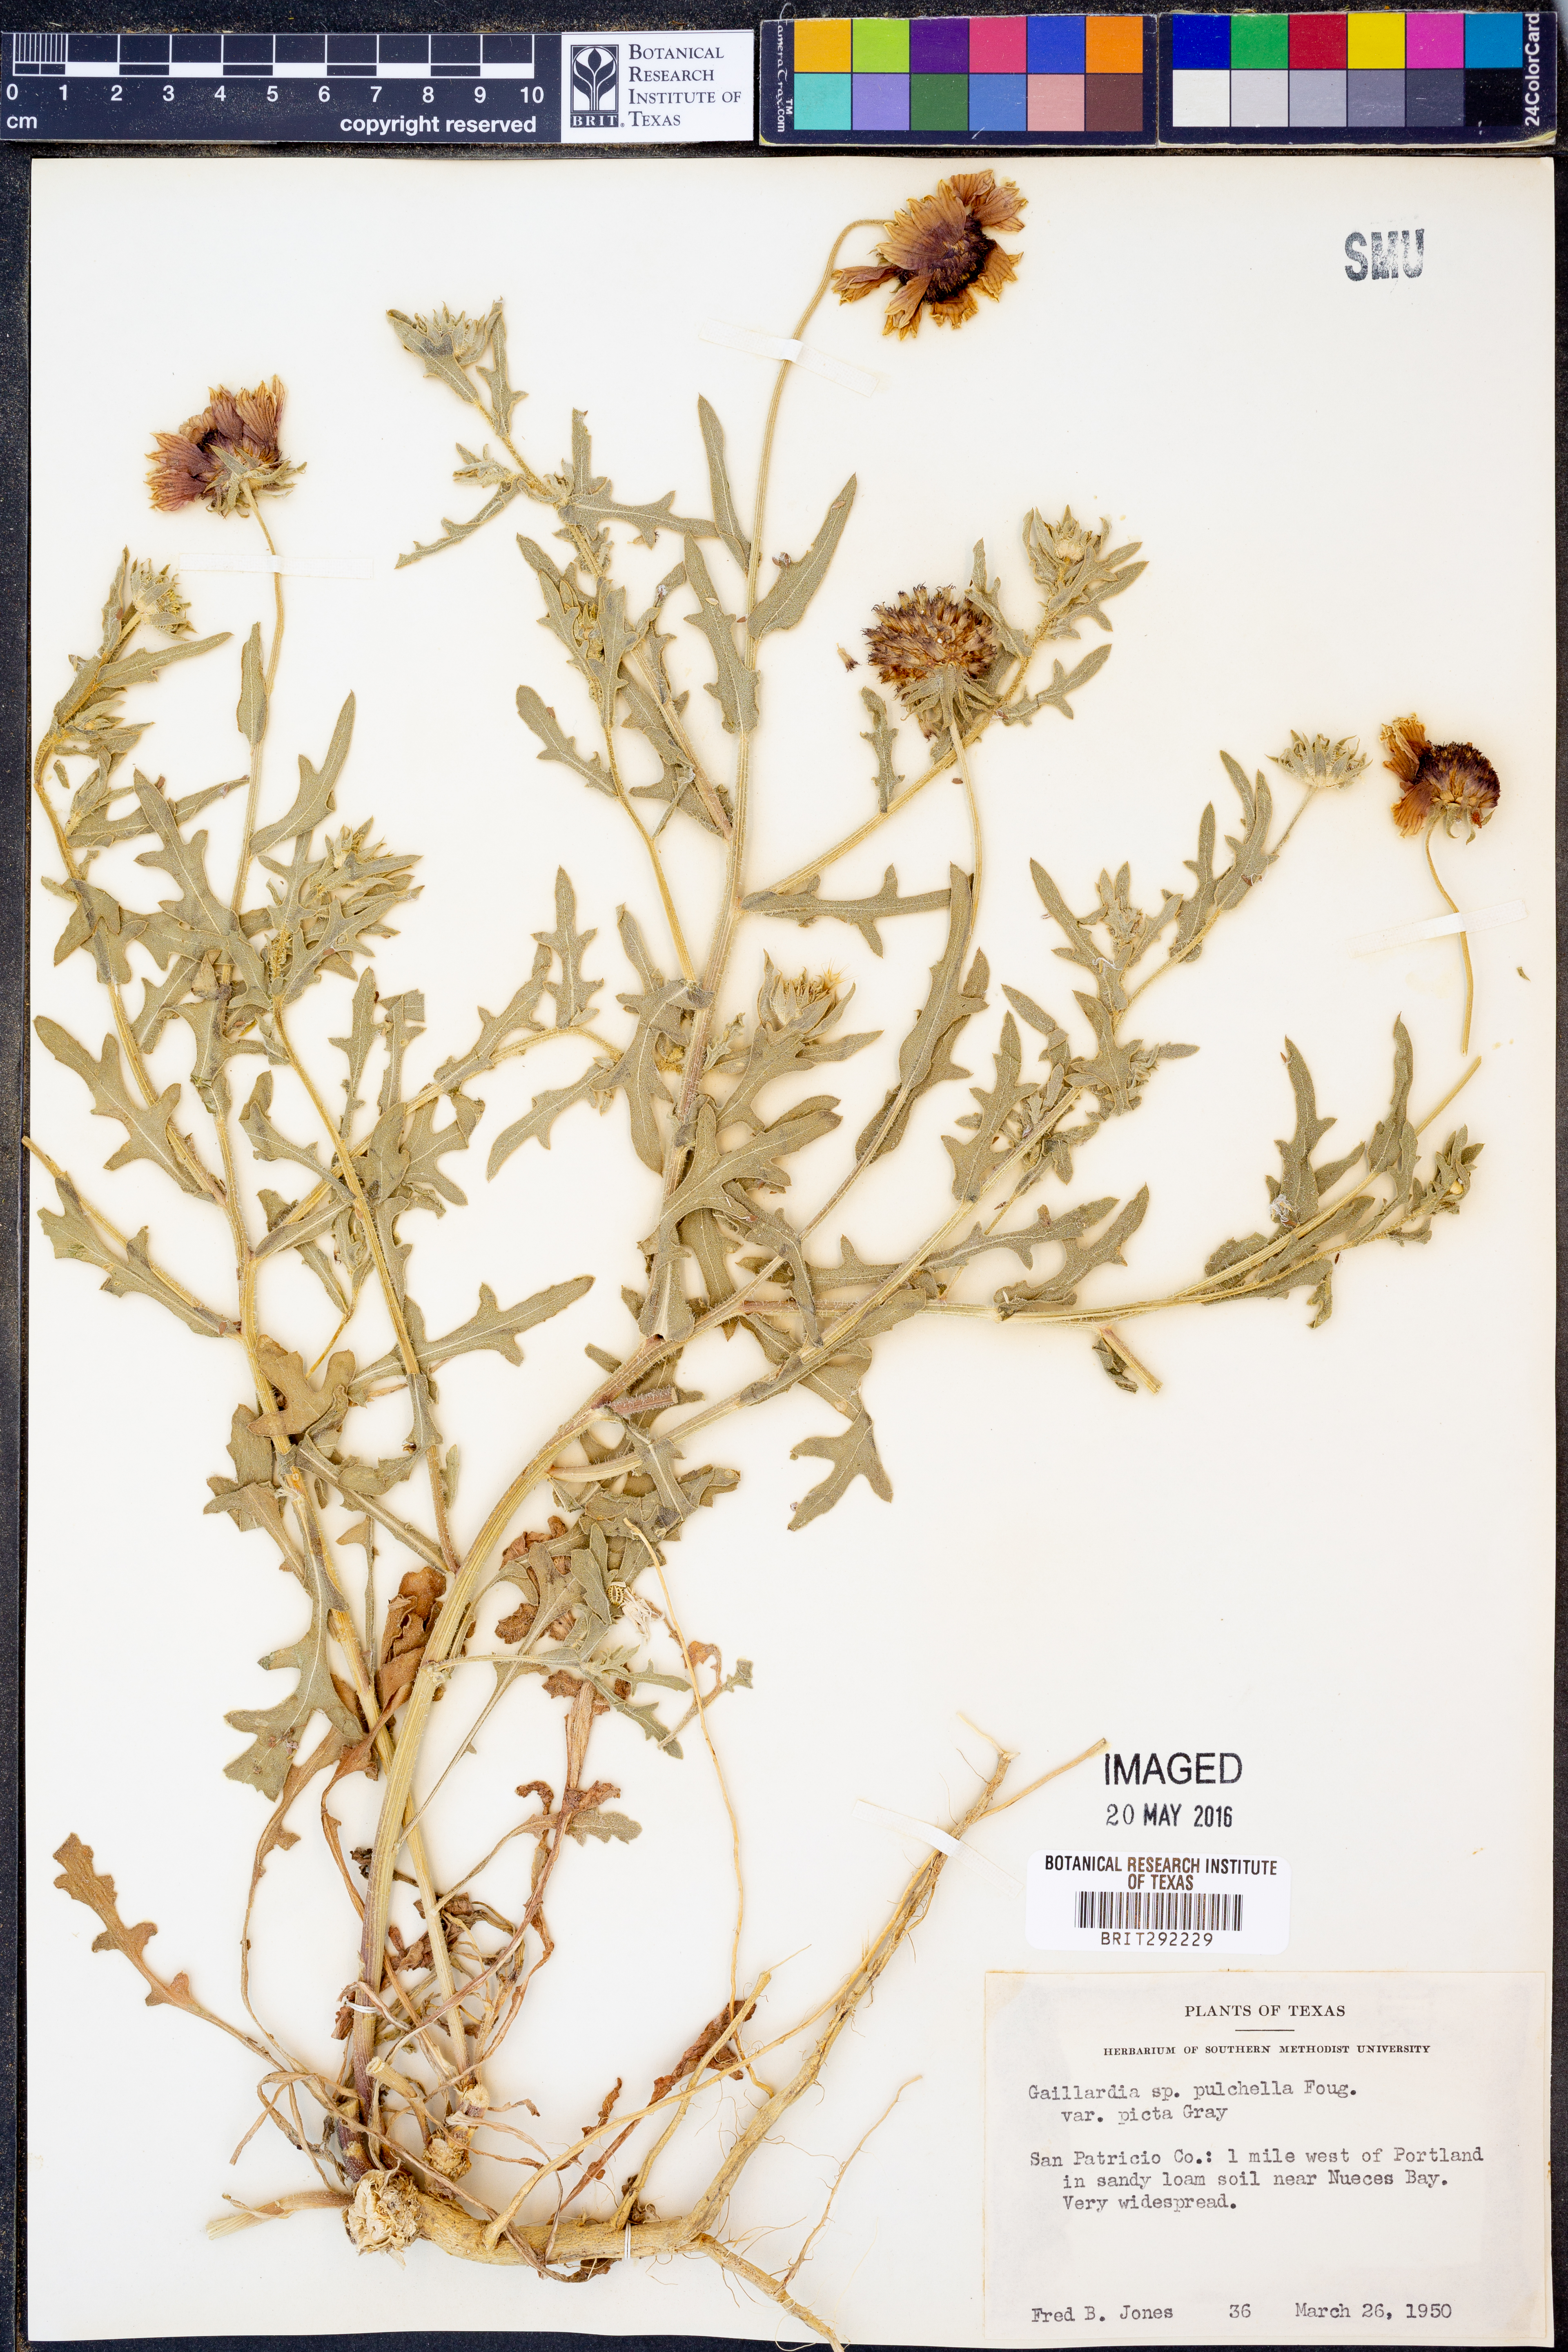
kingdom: Plantae
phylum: Tracheophyta
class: Magnoliopsida
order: Asterales
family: Asteraceae
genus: Gaillardia
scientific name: Gaillardia pulchella
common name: Firewheel
